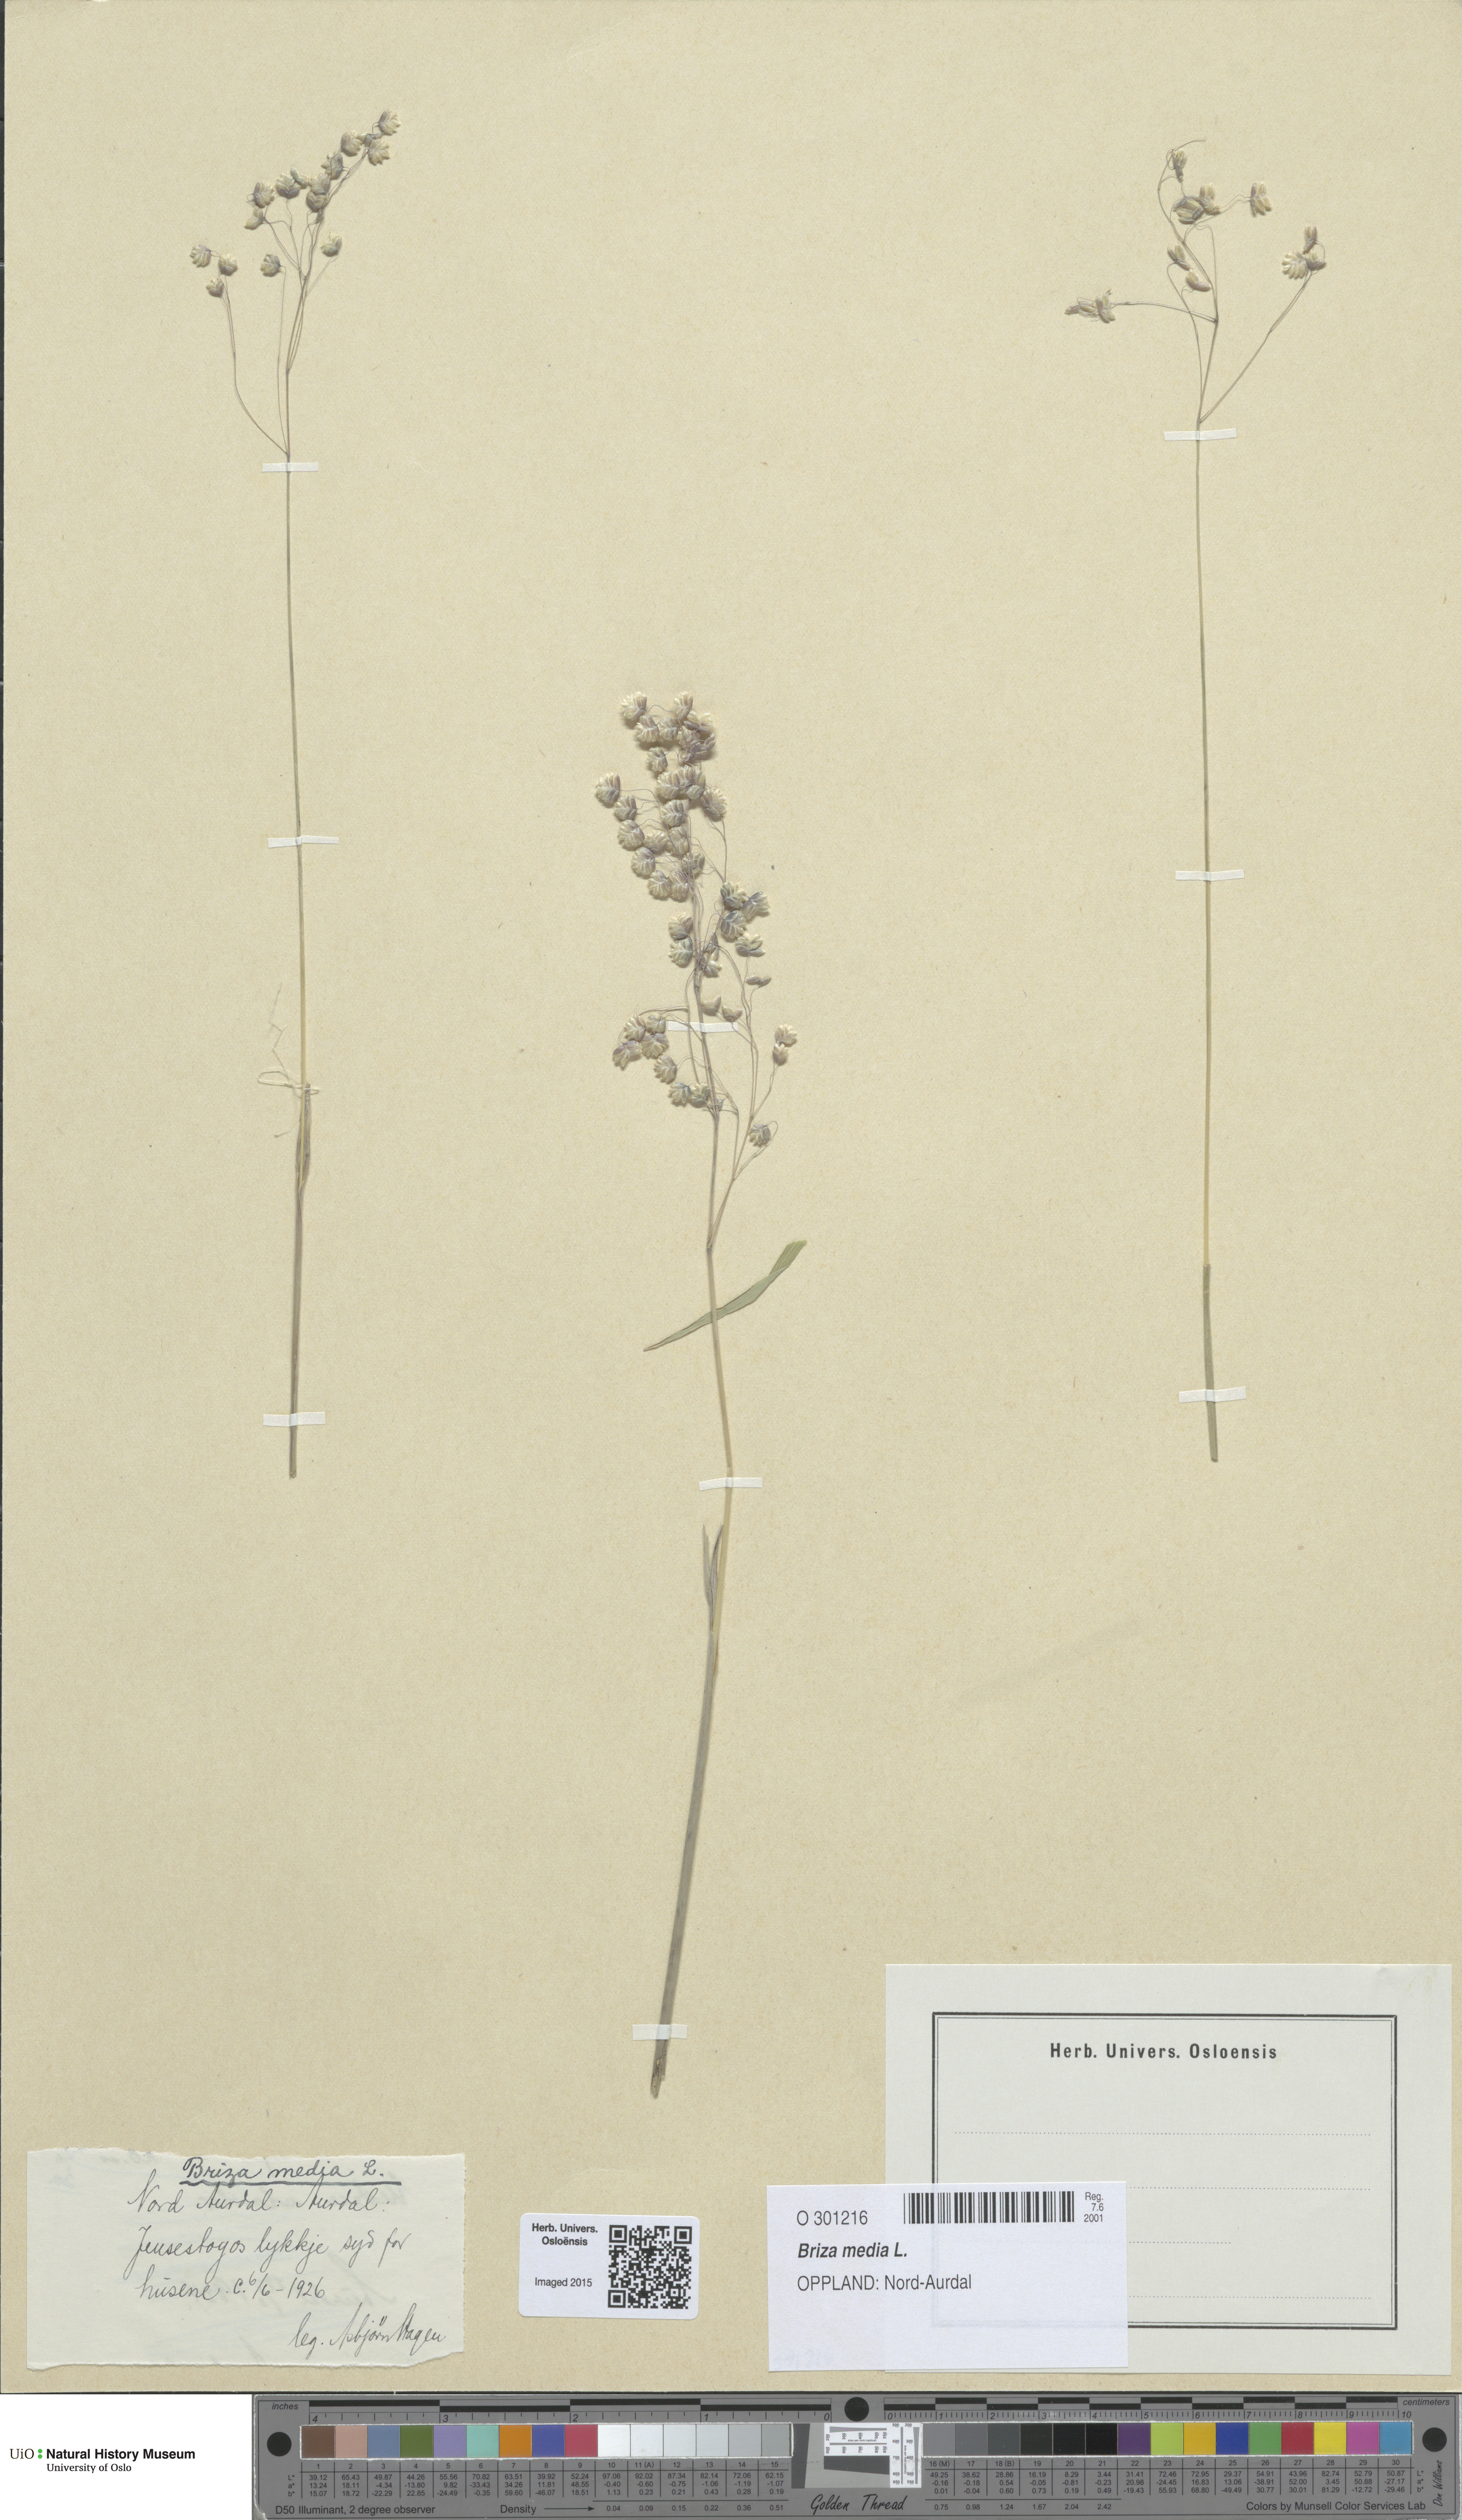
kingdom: Plantae
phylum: Tracheophyta
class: Liliopsida
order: Poales
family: Poaceae
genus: Briza
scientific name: Briza media
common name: Quaking grass
